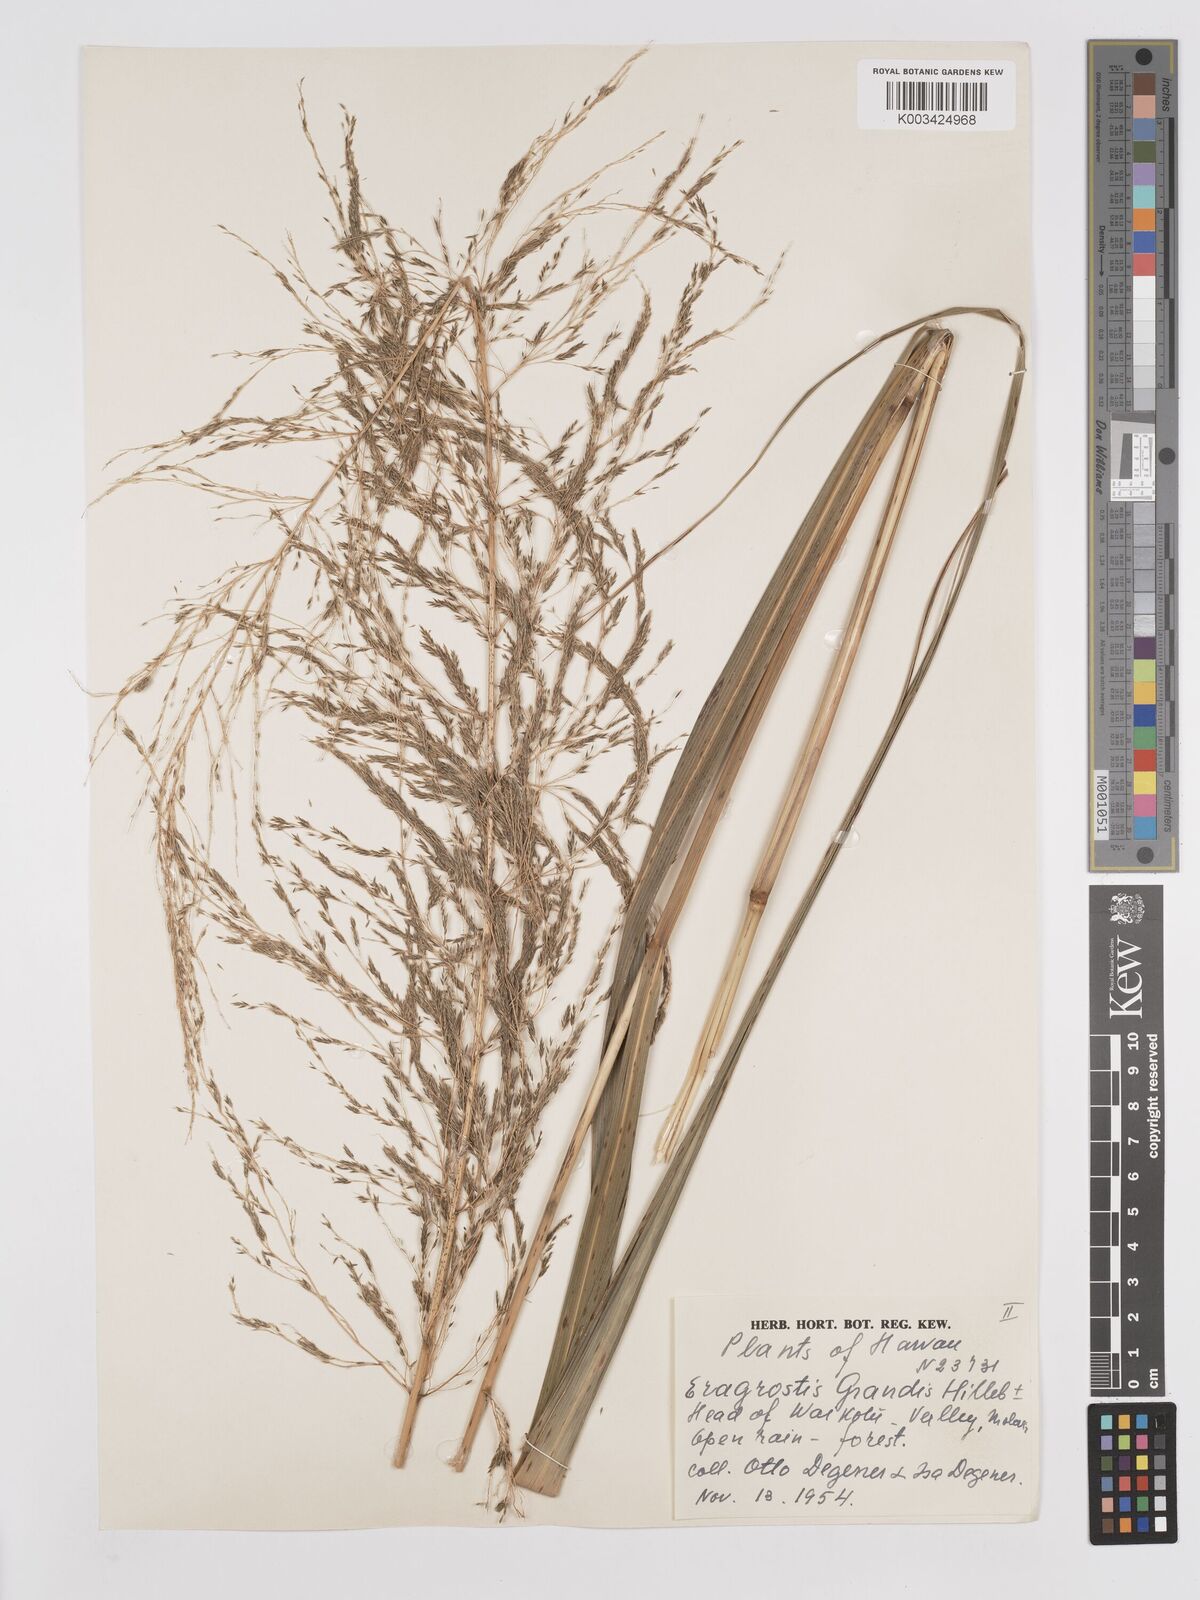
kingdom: Plantae
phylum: Tracheophyta
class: Liliopsida
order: Poales
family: Poaceae
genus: Eragrostis
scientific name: Eragrostis grandis
